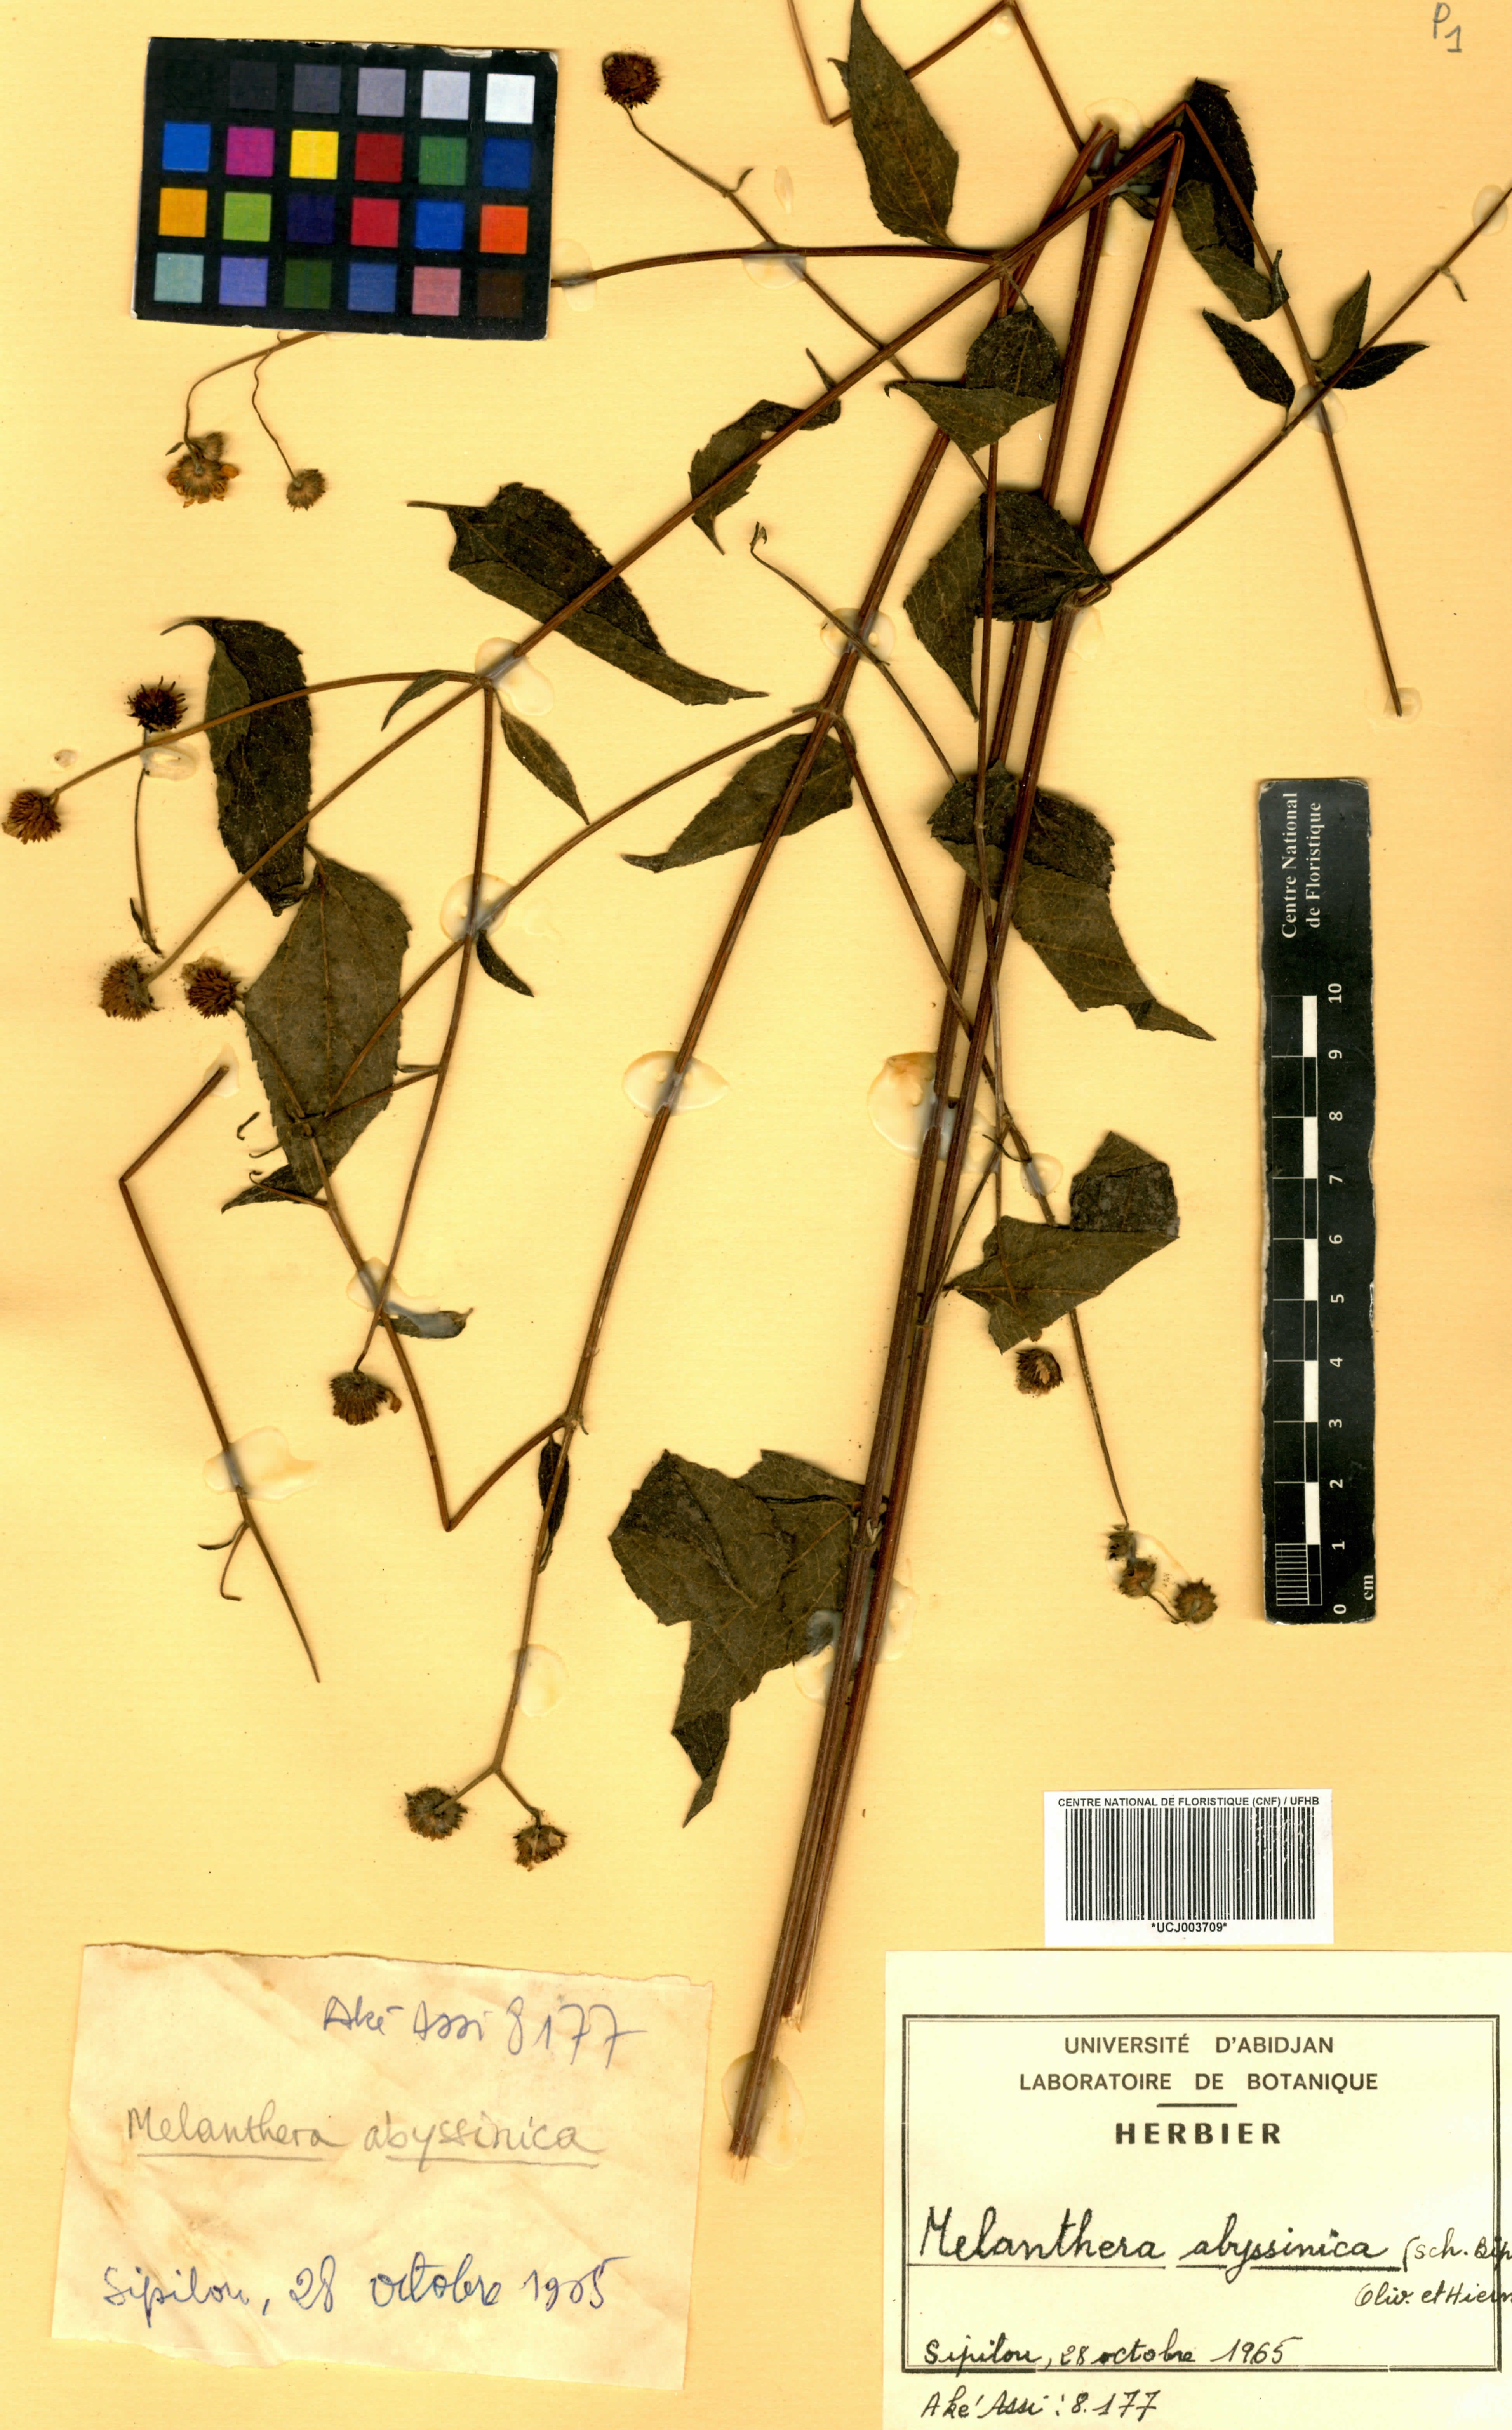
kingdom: Plantae
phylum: Tracheophyta
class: Magnoliopsida
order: Asterales
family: Asteraceae
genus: Lipotriche
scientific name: Lipotriche abyssinica
